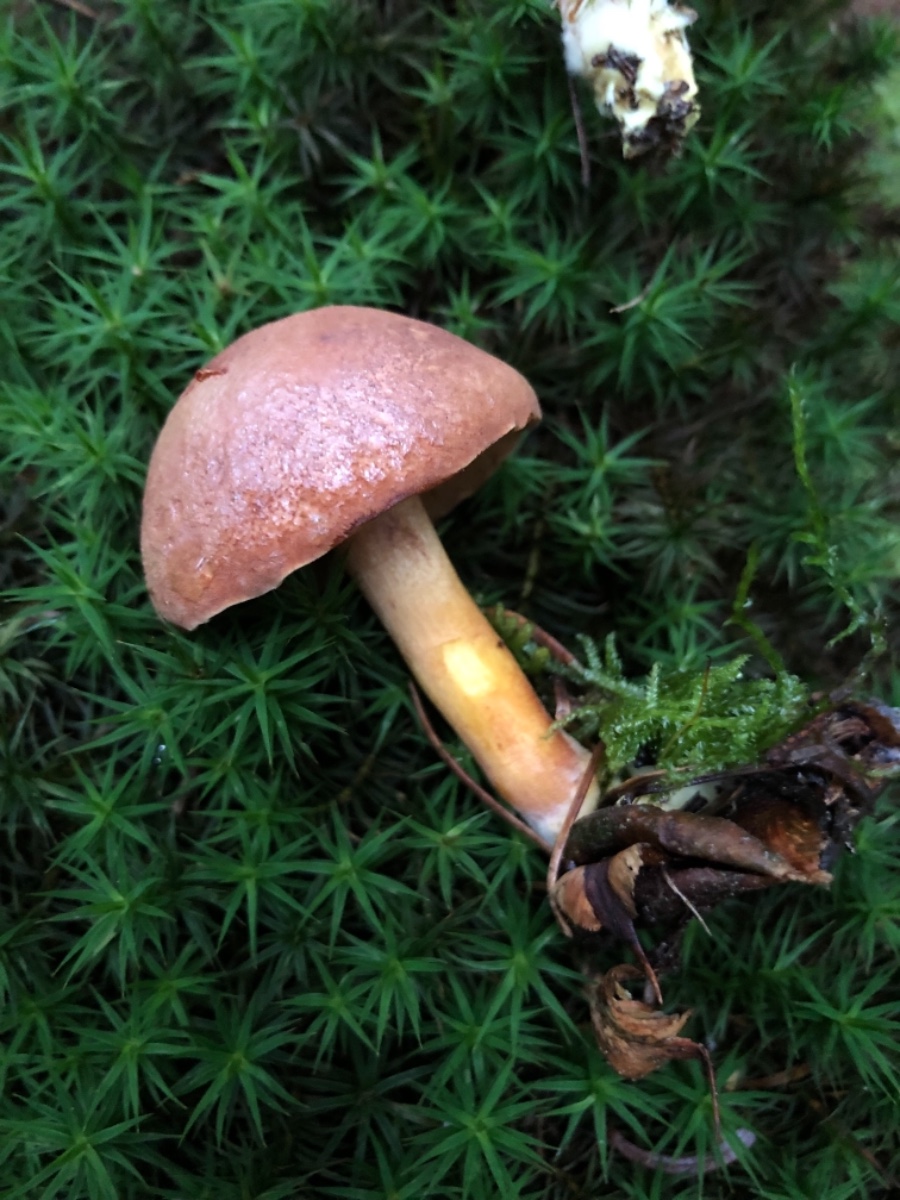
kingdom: Fungi
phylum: Basidiomycota
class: Agaricomycetes
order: Boletales
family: Boletaceae
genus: Chalciporus
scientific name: Chalciporus piperatus
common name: peberrørhat
